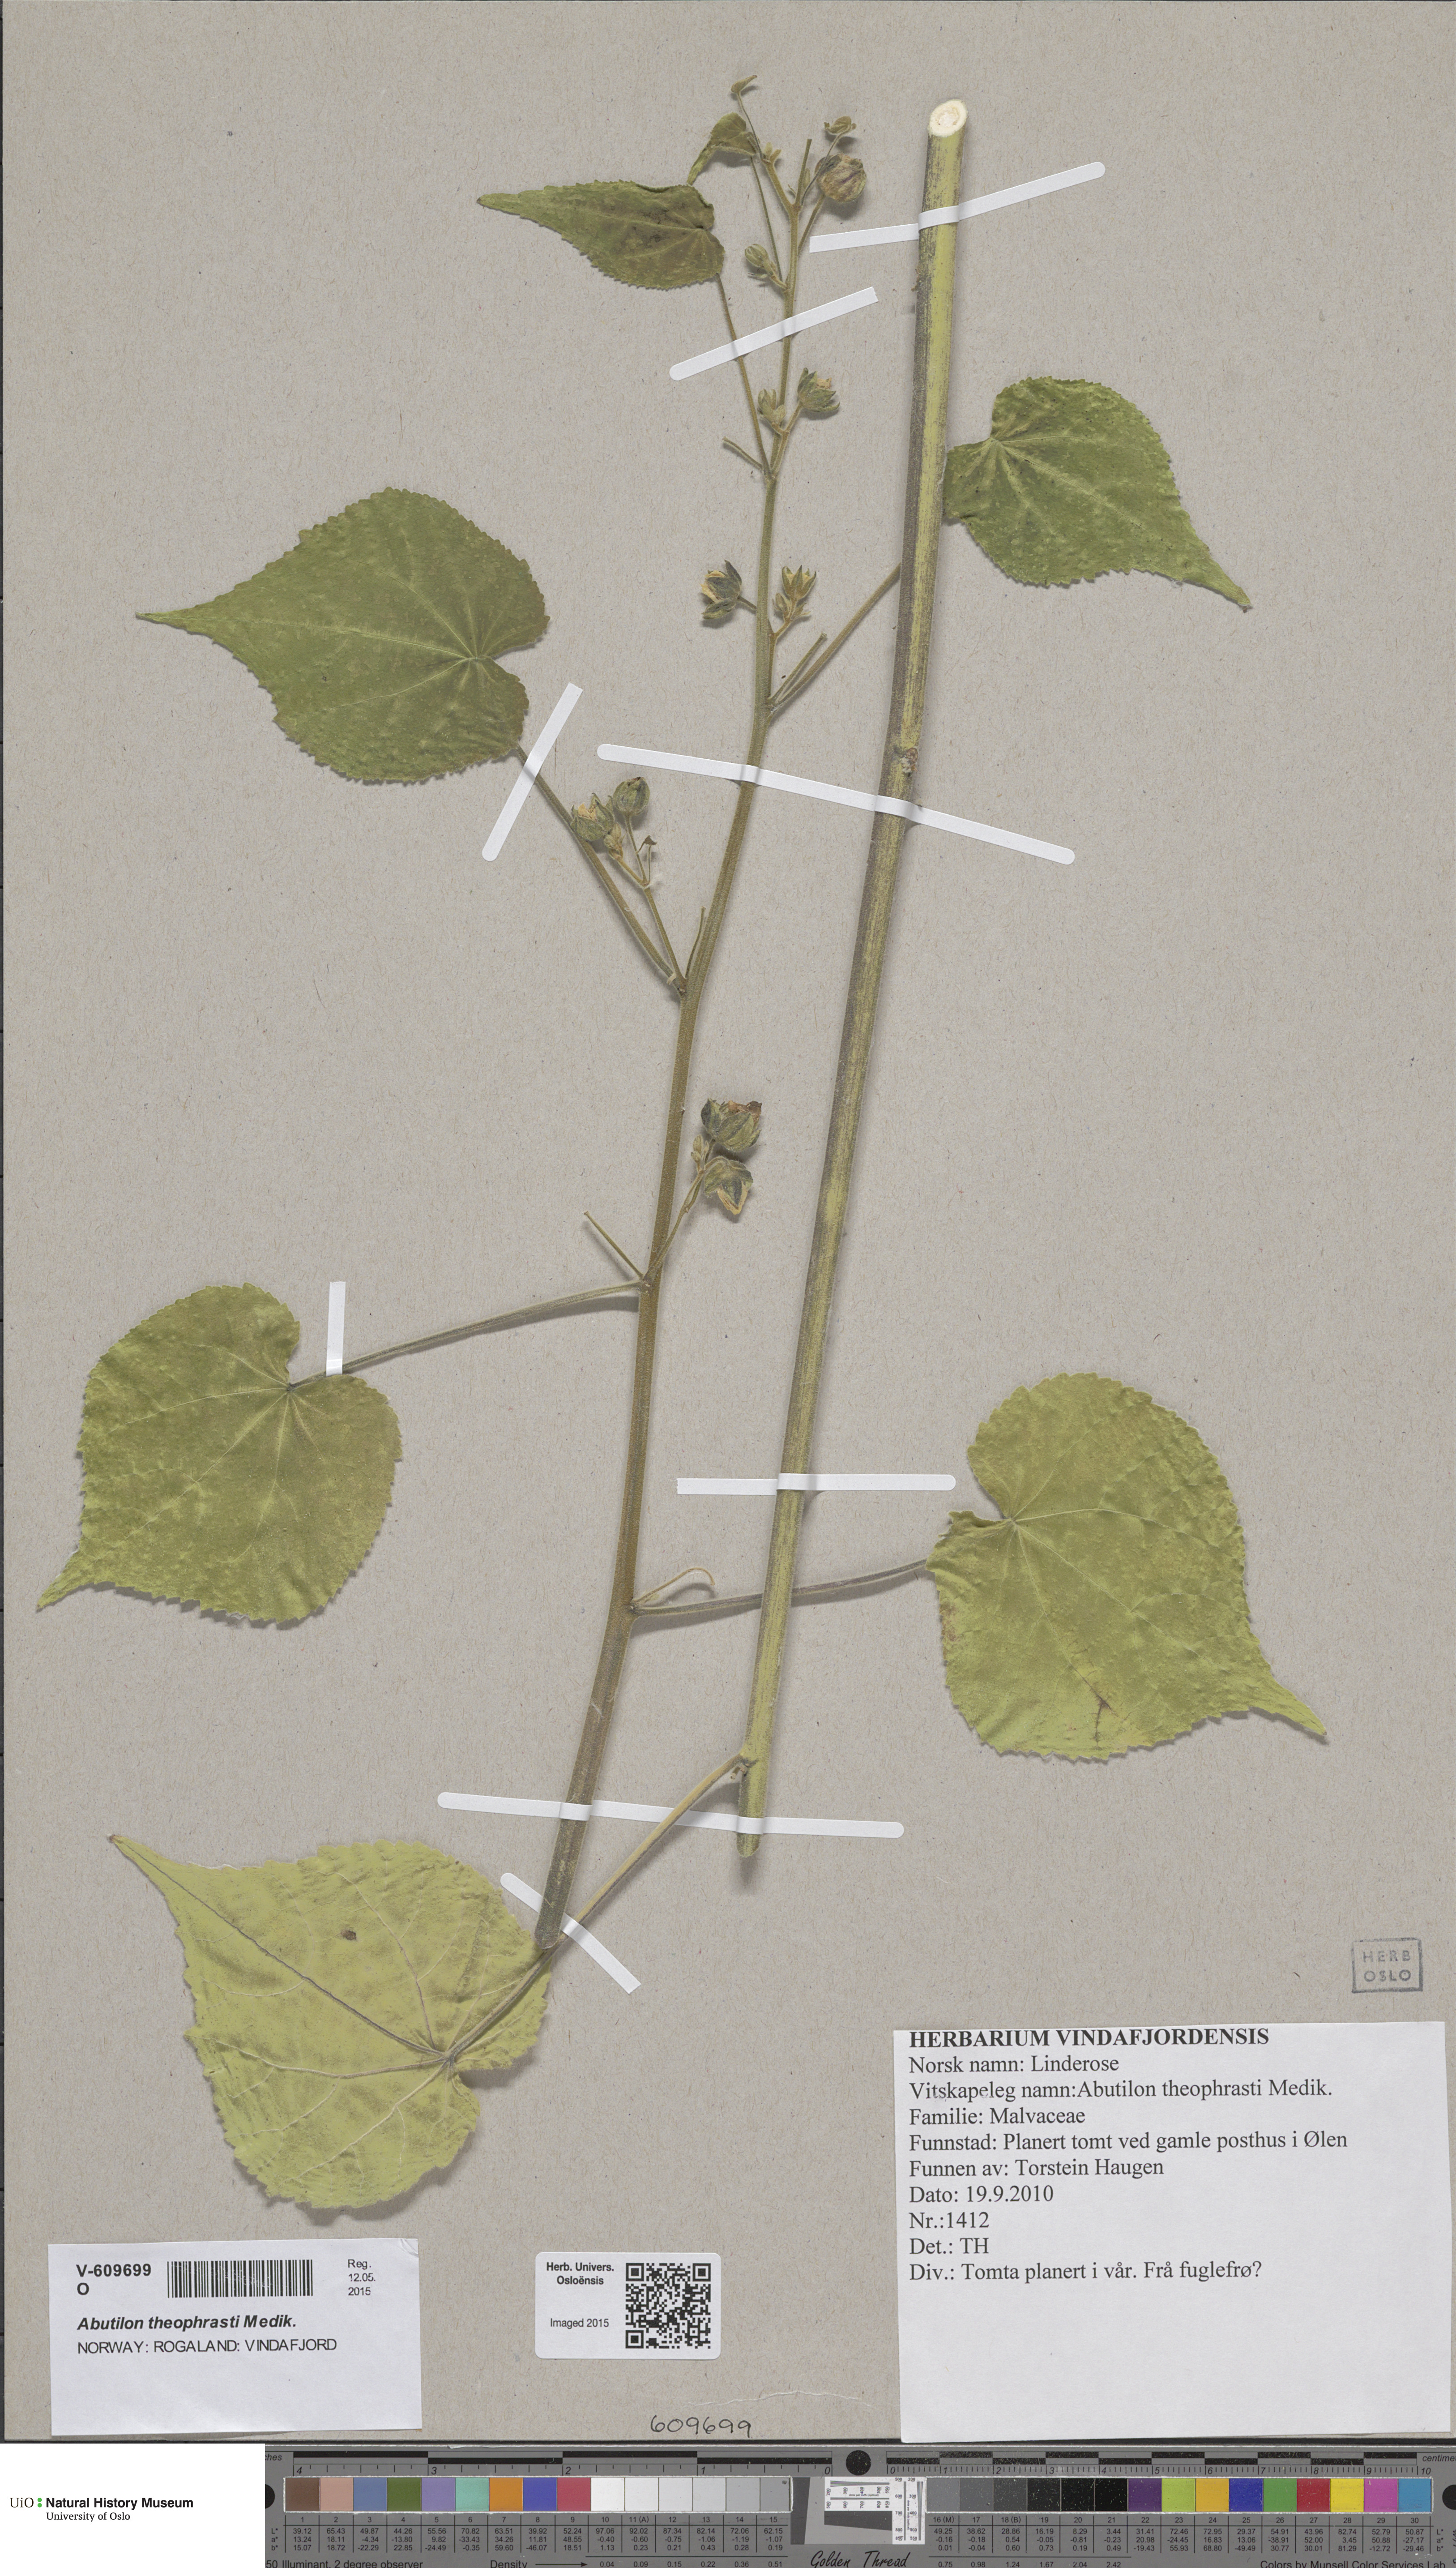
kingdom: Plantae
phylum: Tracheophyta
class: Magnoliopsida
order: Malvales
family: Malvaceae
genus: Abutilon
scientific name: Abutilon theophrasti
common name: Velvetleaf
